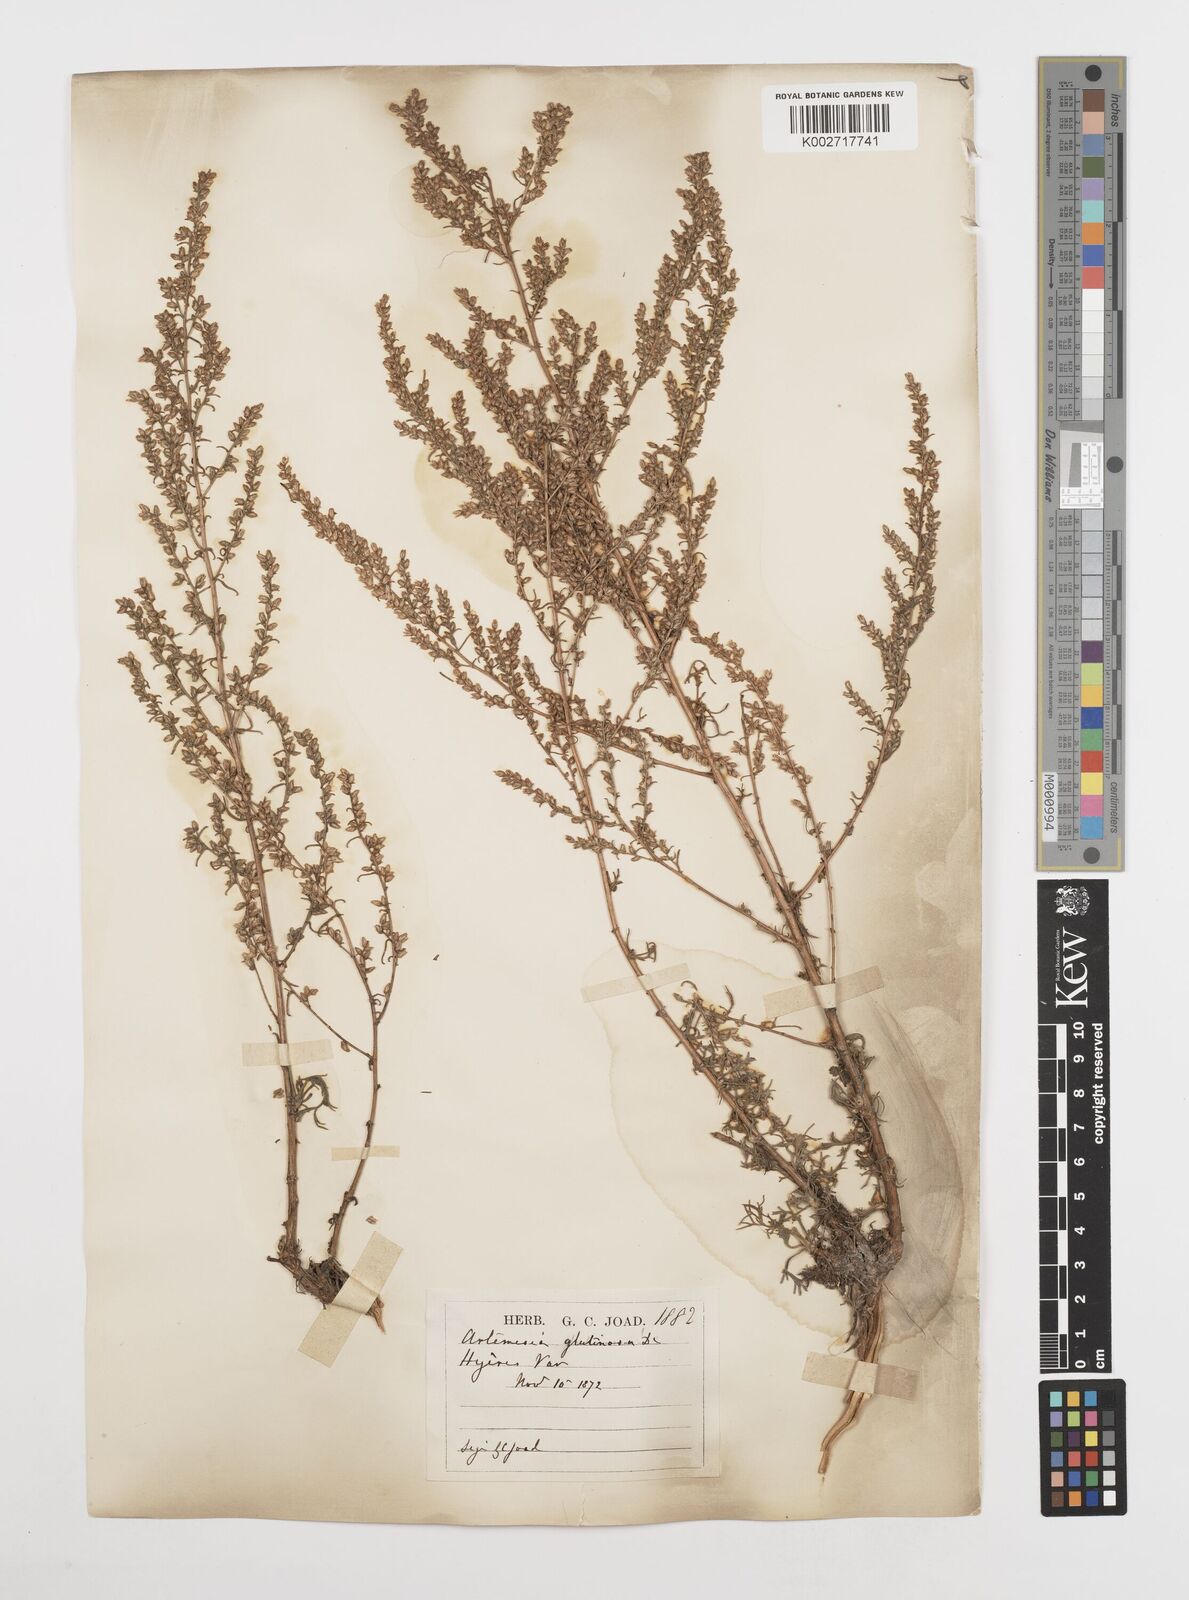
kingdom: Plantae
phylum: Tracheophyta
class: Magnoliopsida
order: Asterales
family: Asteraceae
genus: Artemisia
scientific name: Artemisia campestris
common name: Field wormwood
